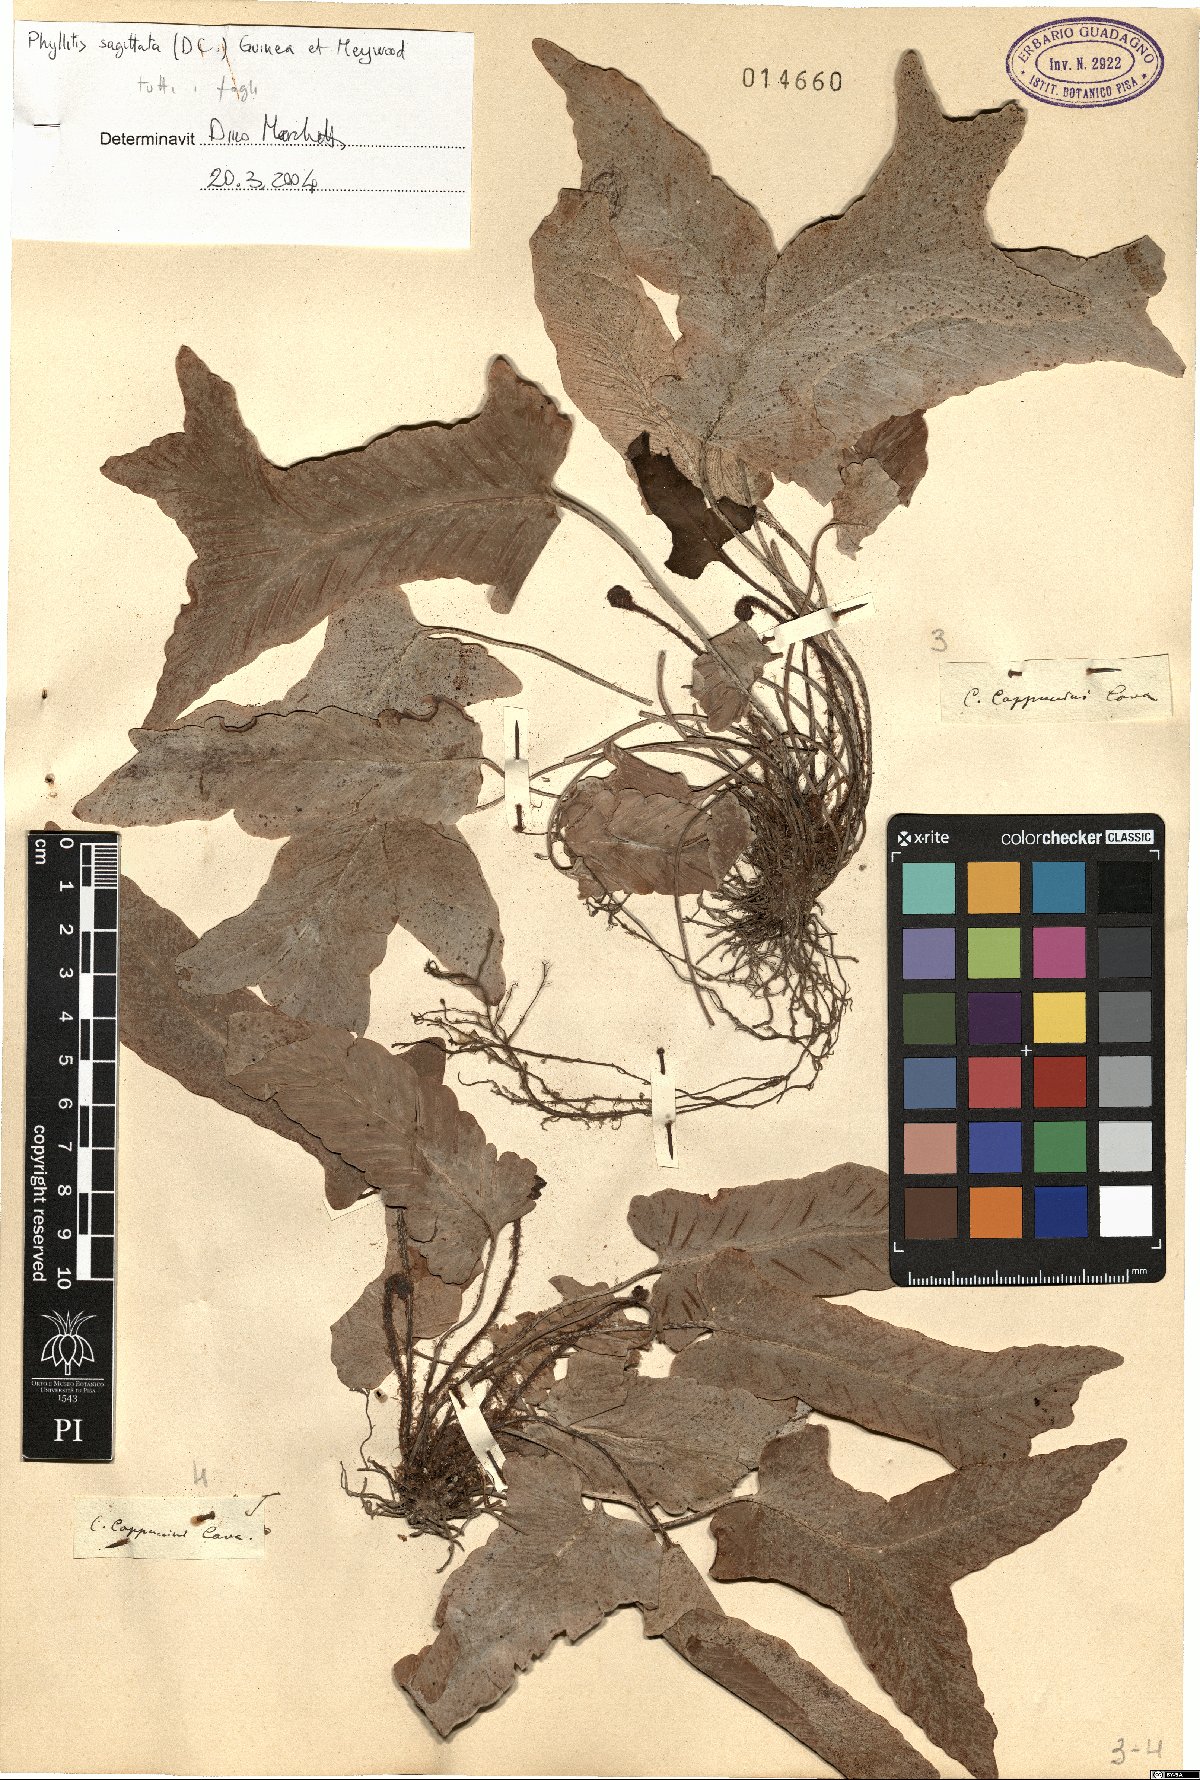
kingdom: Plantae
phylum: Tracheophyta
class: Polypodiopsida
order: Polypodiales
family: Aspleniaceae
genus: Asplenium
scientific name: Asplenium sagittatum
